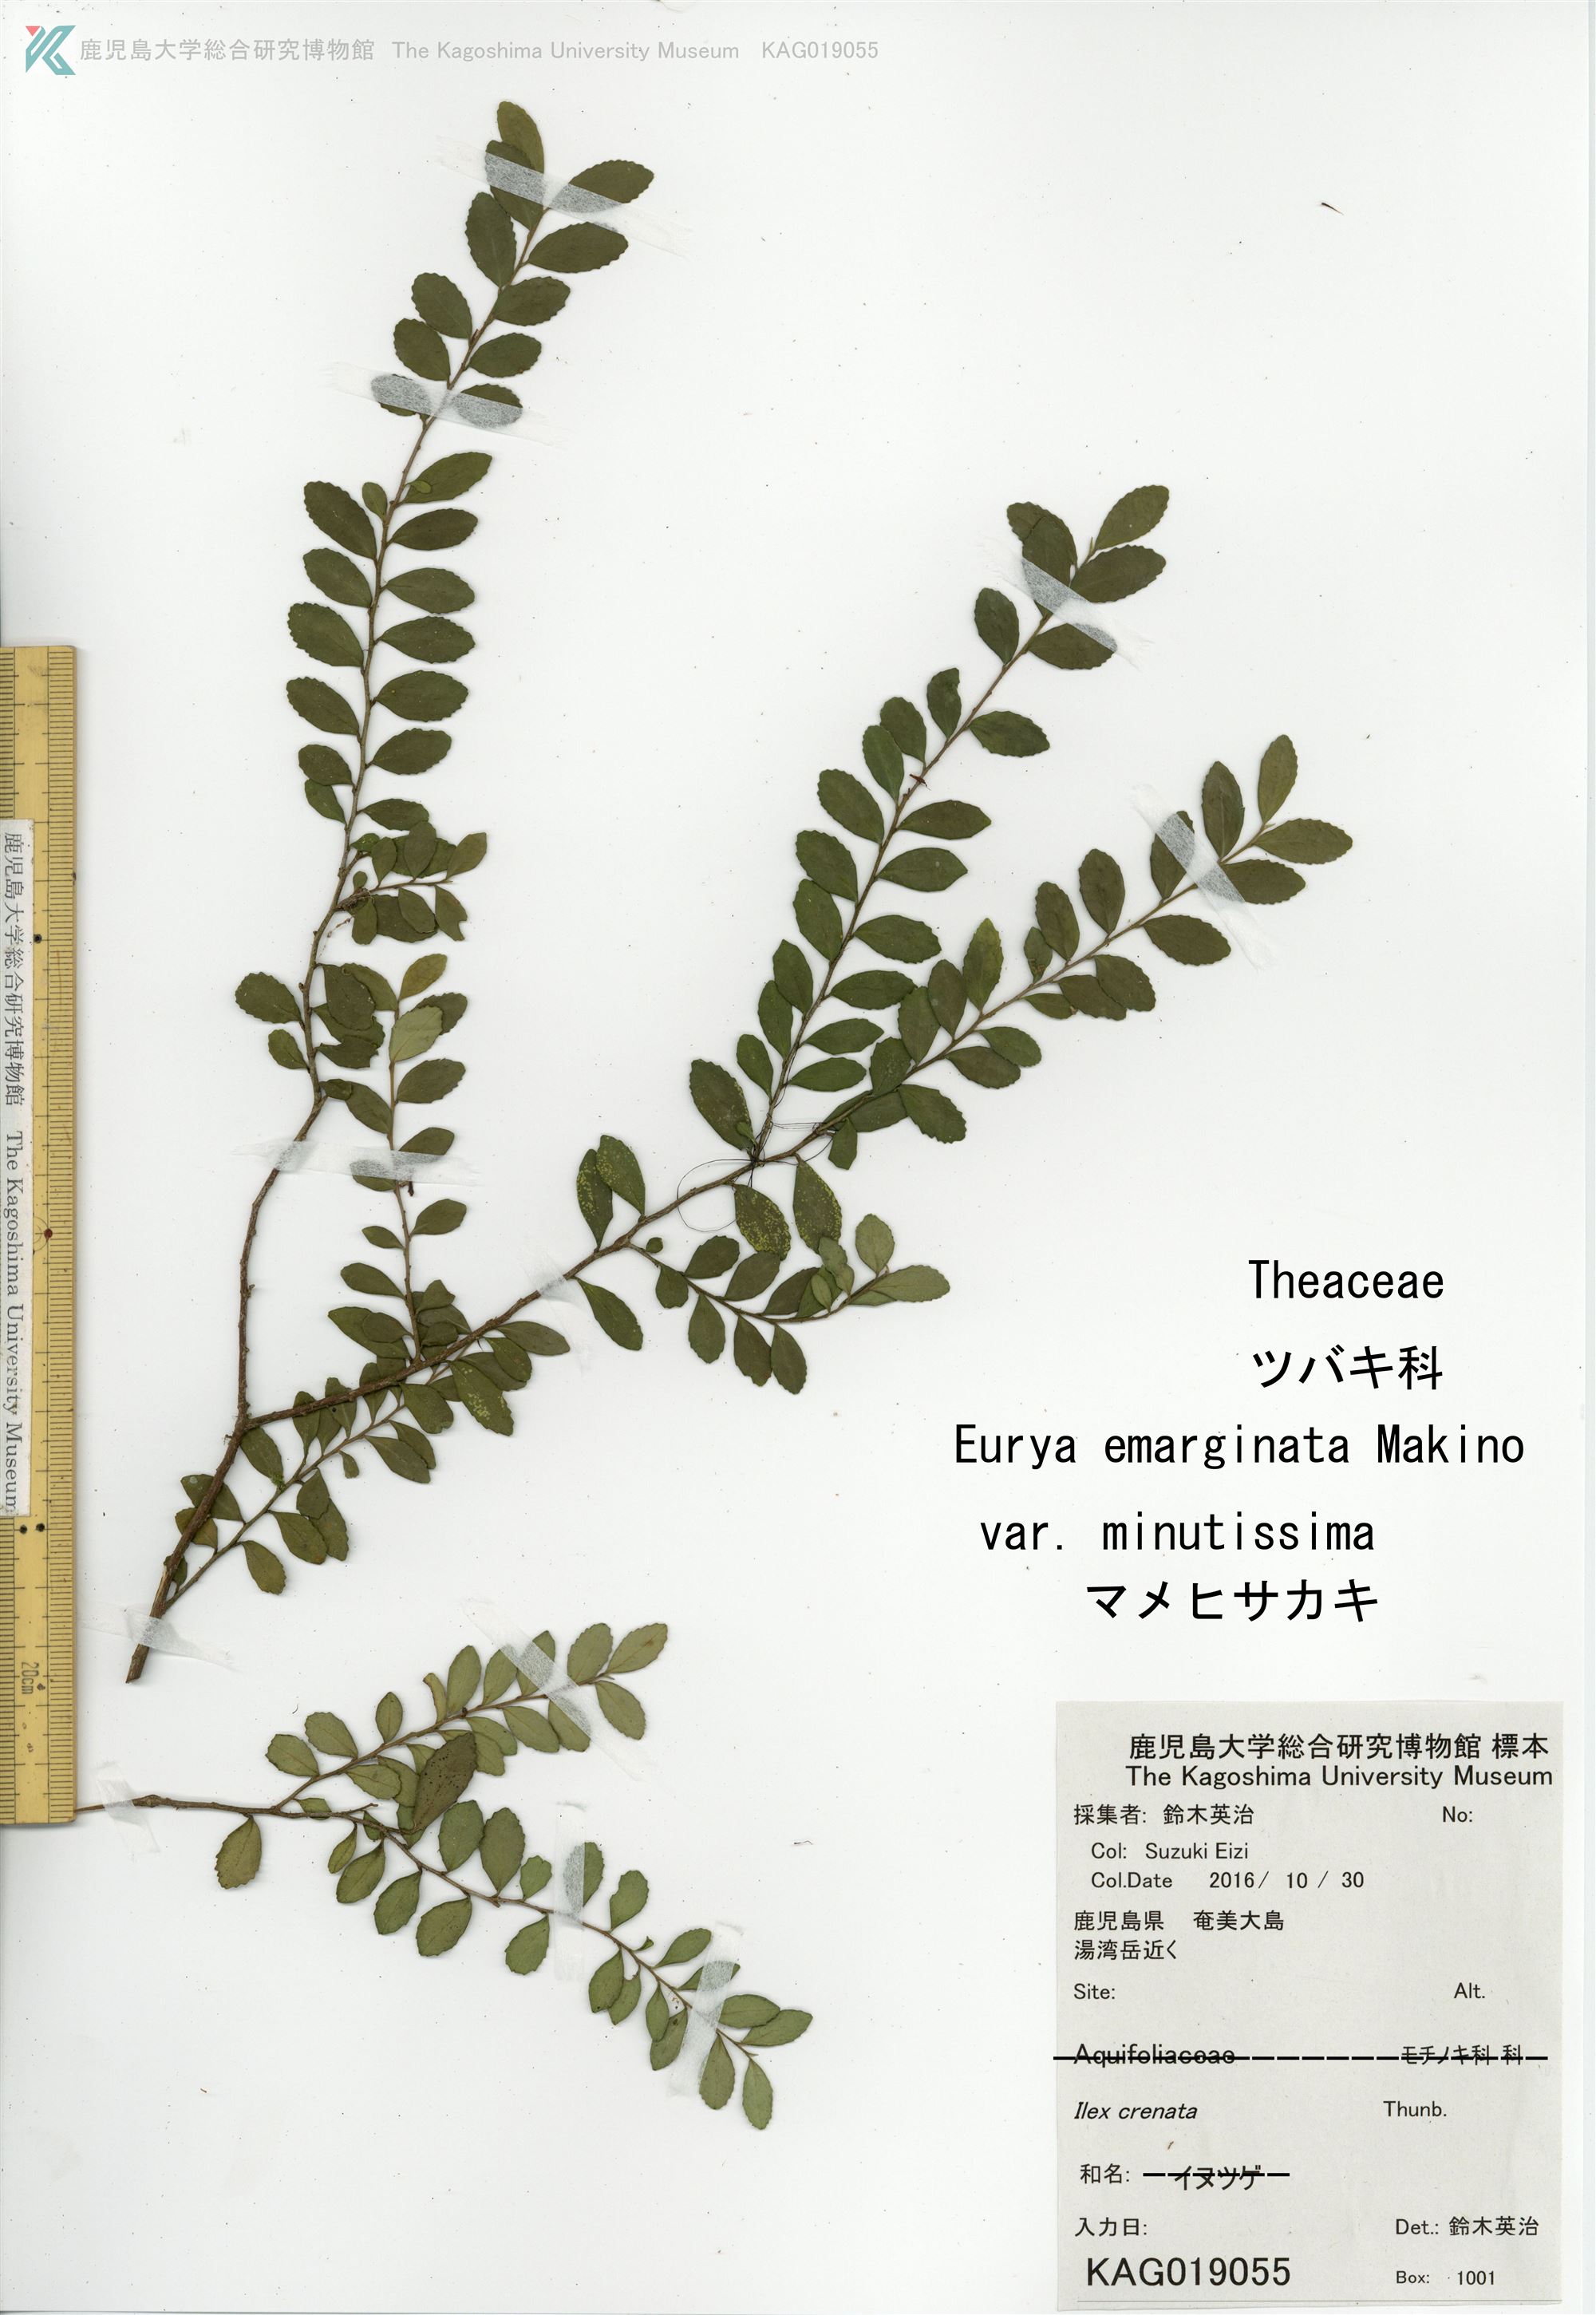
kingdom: Plantae
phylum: Tracheophyta
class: Magnoliopsida
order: Ericales
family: Pentaphylacaceae
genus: Eurya
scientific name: Eurya emarginata
